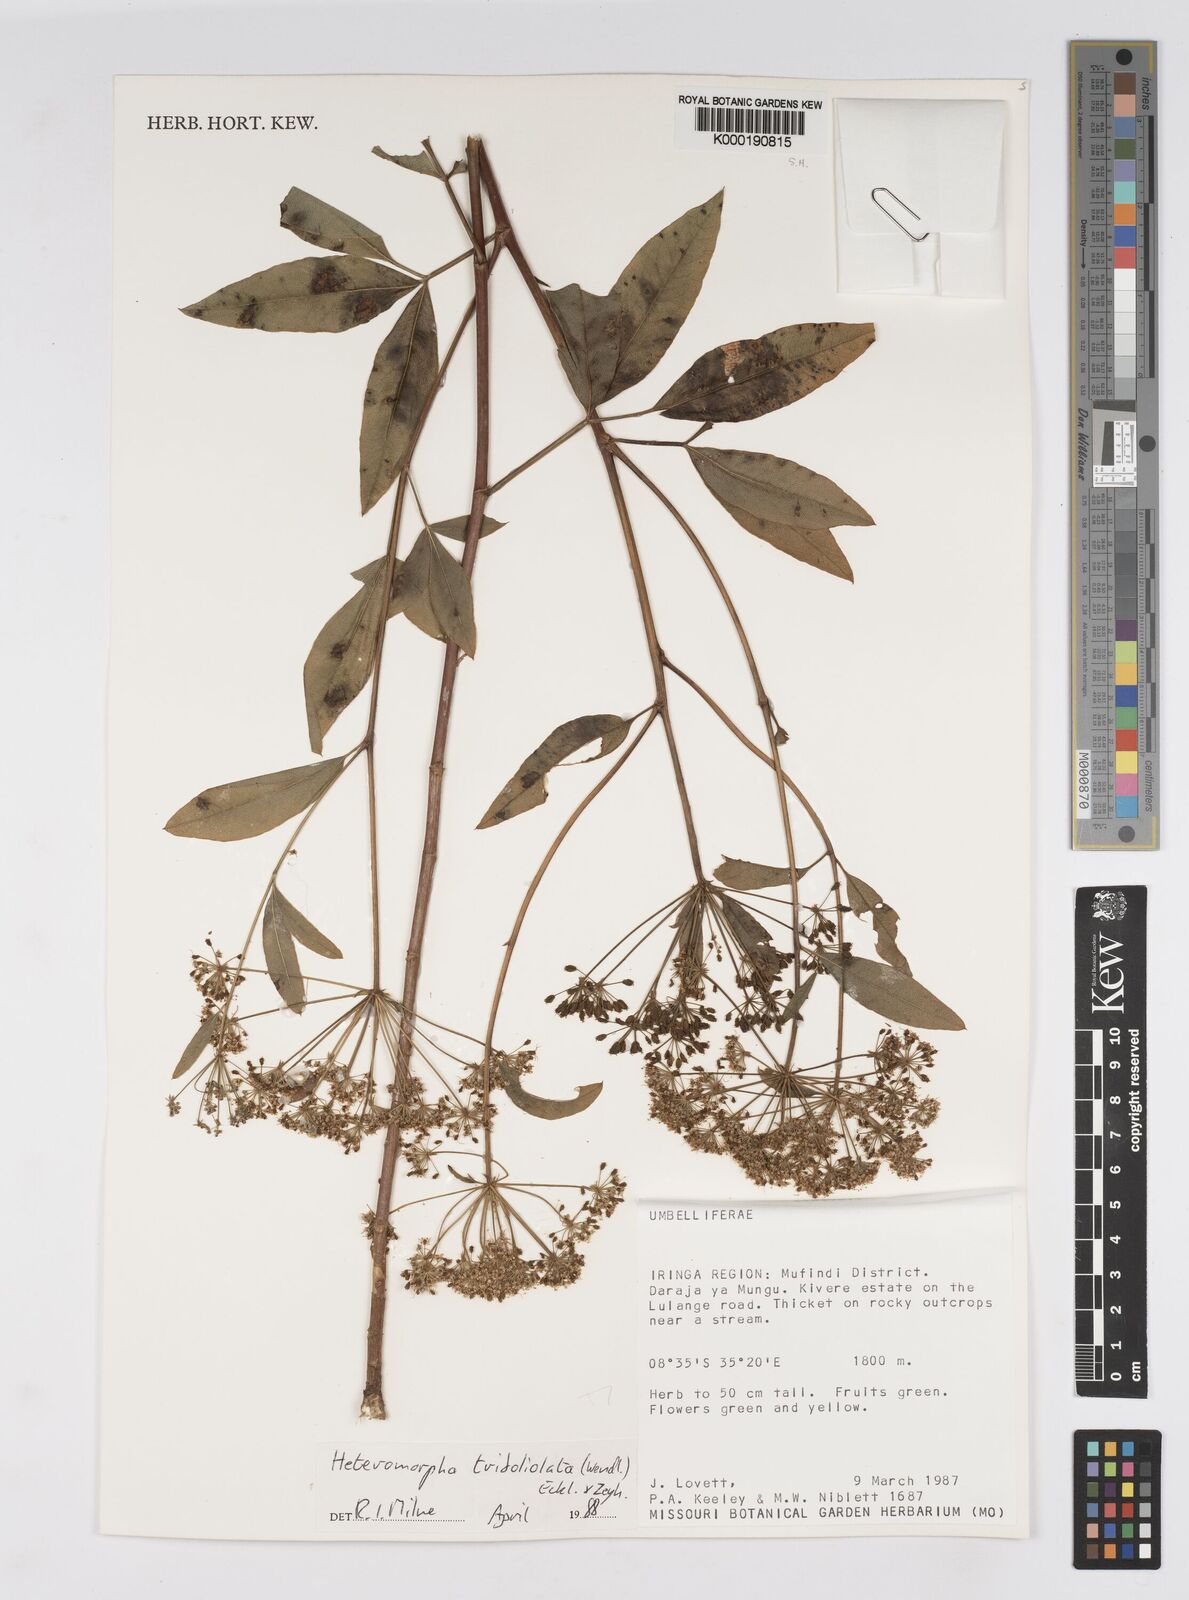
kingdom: Plantae
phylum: Tracheophyta
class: Magnoliopsida
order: Apiales
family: Apiaceae
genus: Heteromorpha
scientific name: Heteromorpha arborescens
